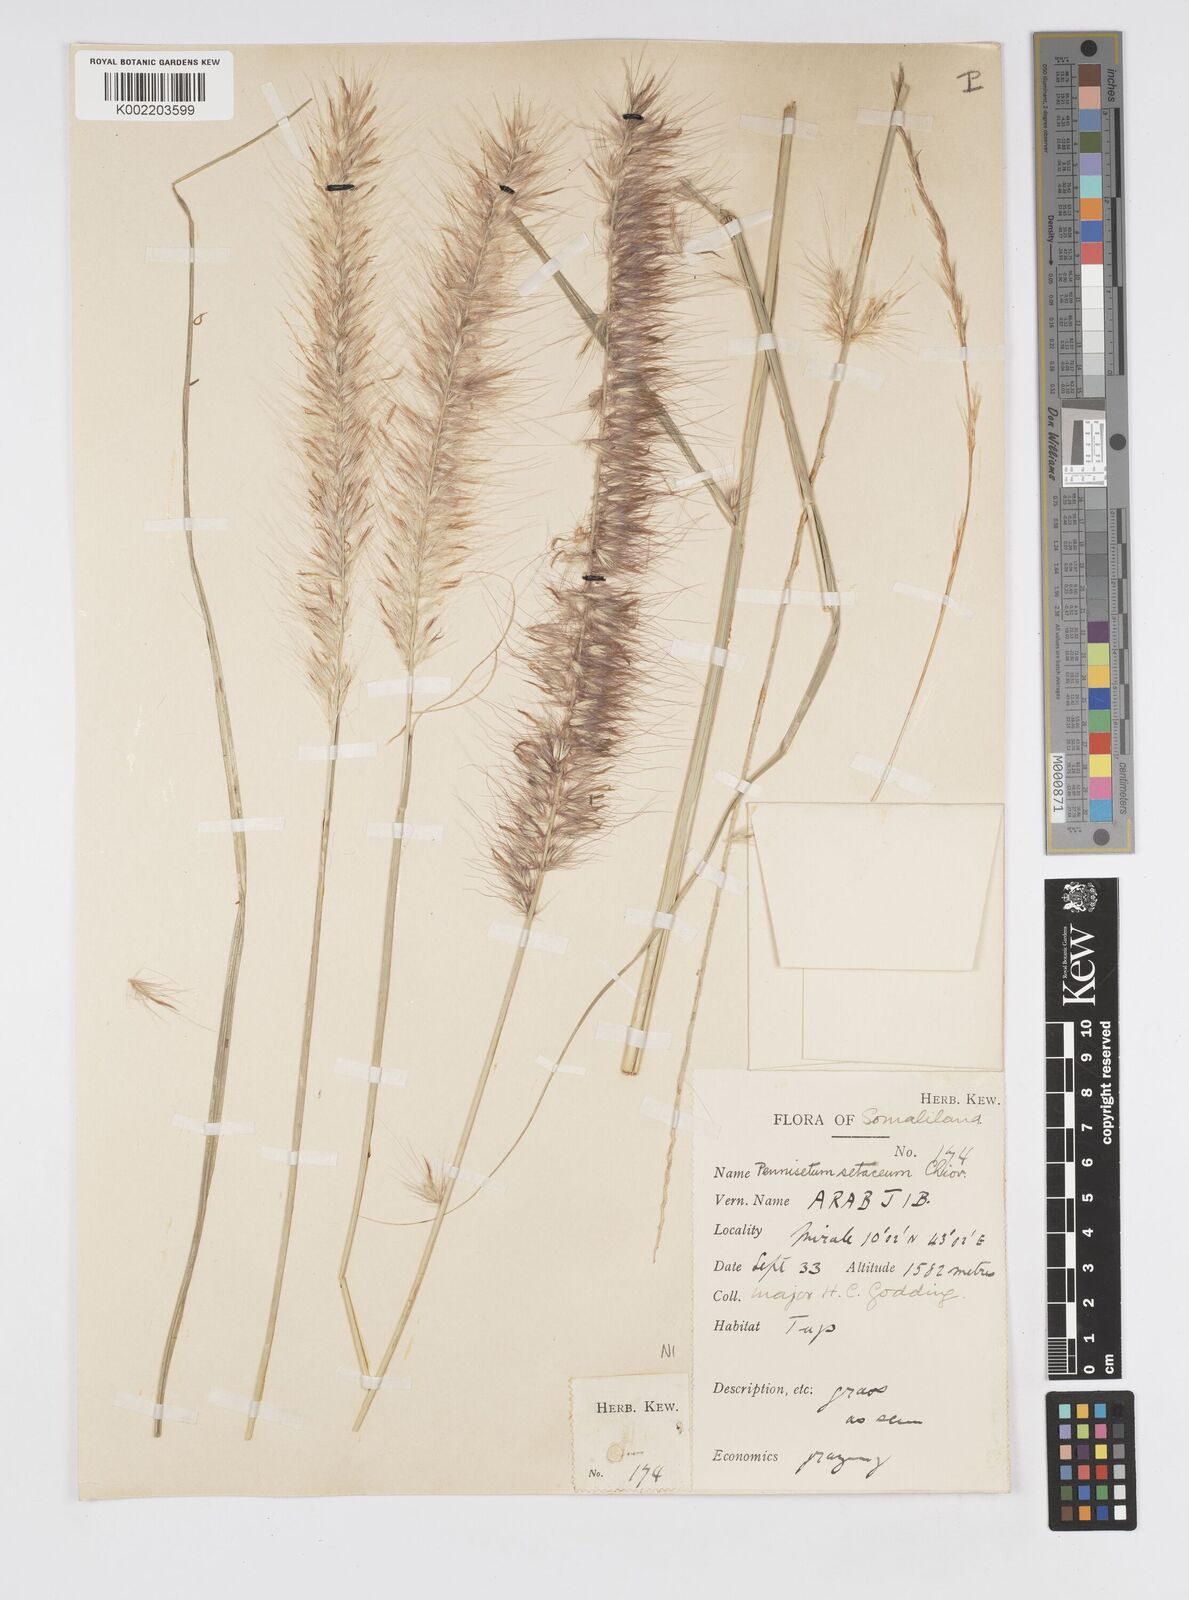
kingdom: Plantae
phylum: Tracheophyta
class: Liliopsida
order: Poales
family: Poaceae
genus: Cenchrus
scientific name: Cenchrus setaceus
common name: Crimson fountaingrass
